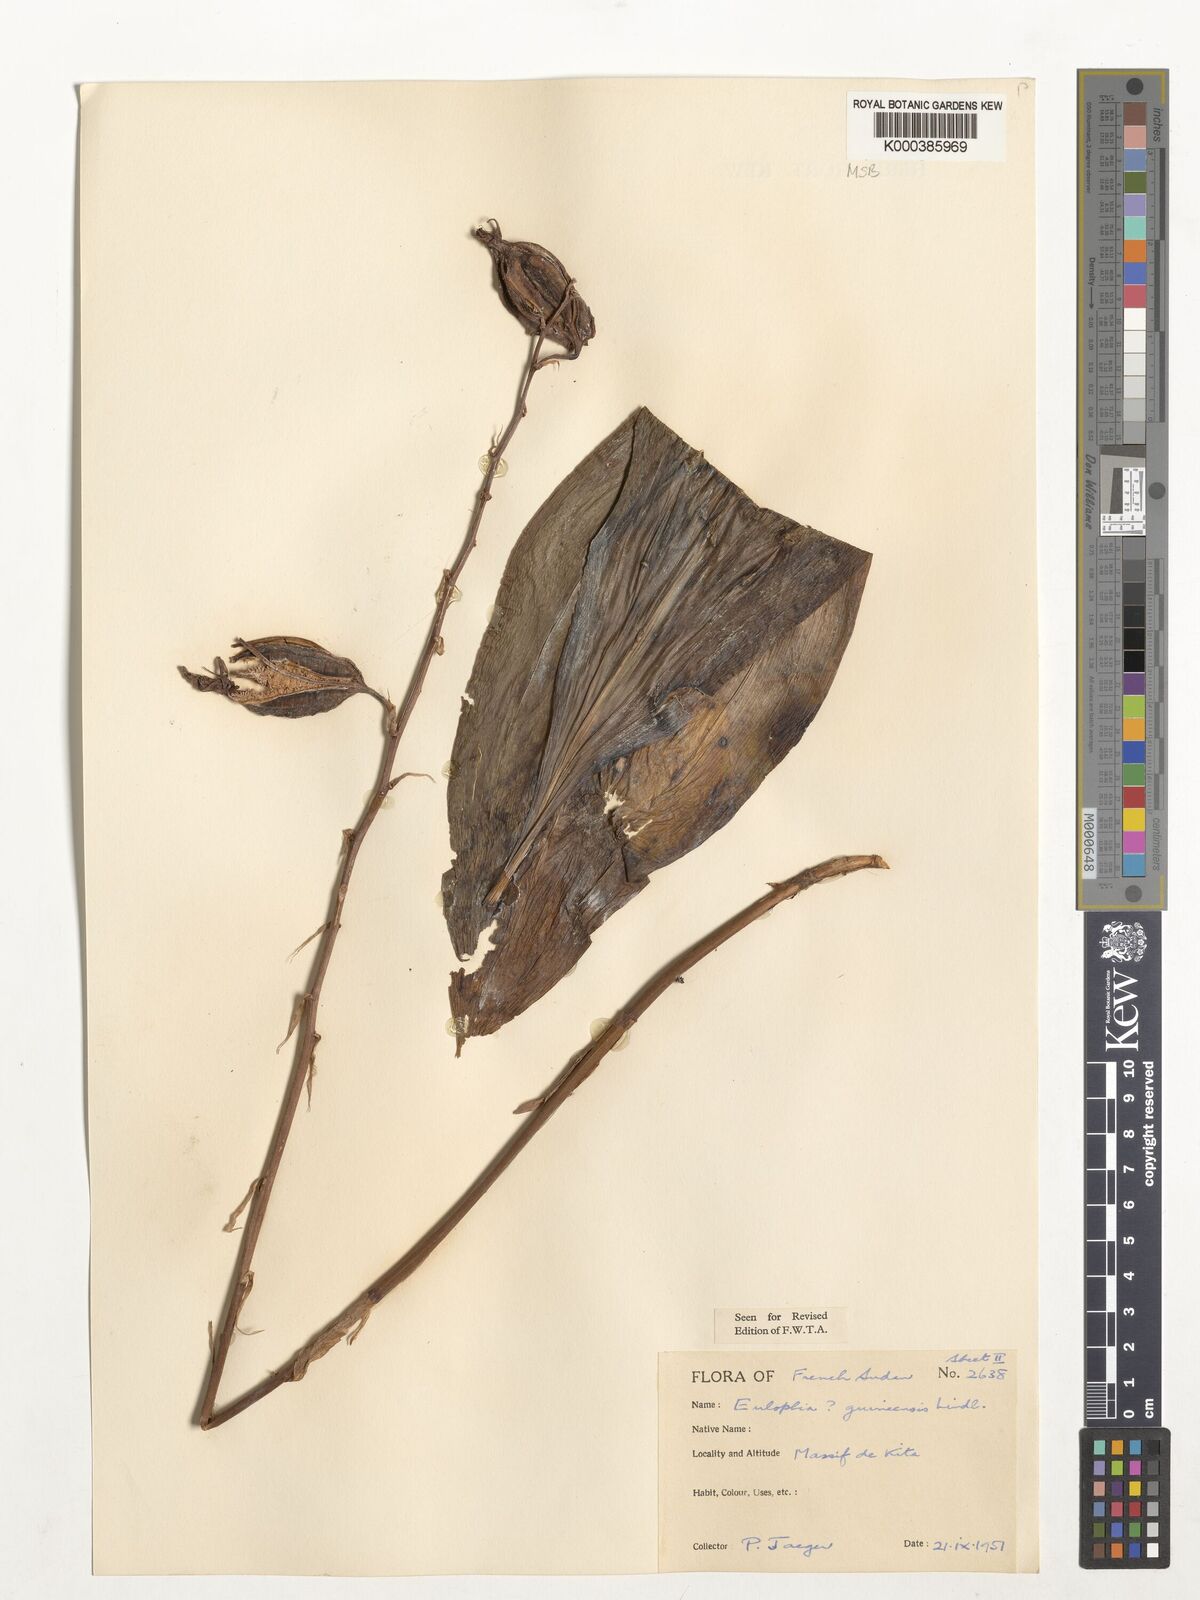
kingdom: Plantae
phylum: Tracheophyta
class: Liliopsida
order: Asparagales
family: Orchidaceae
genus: Eulophia
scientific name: Eulophia guineensis
